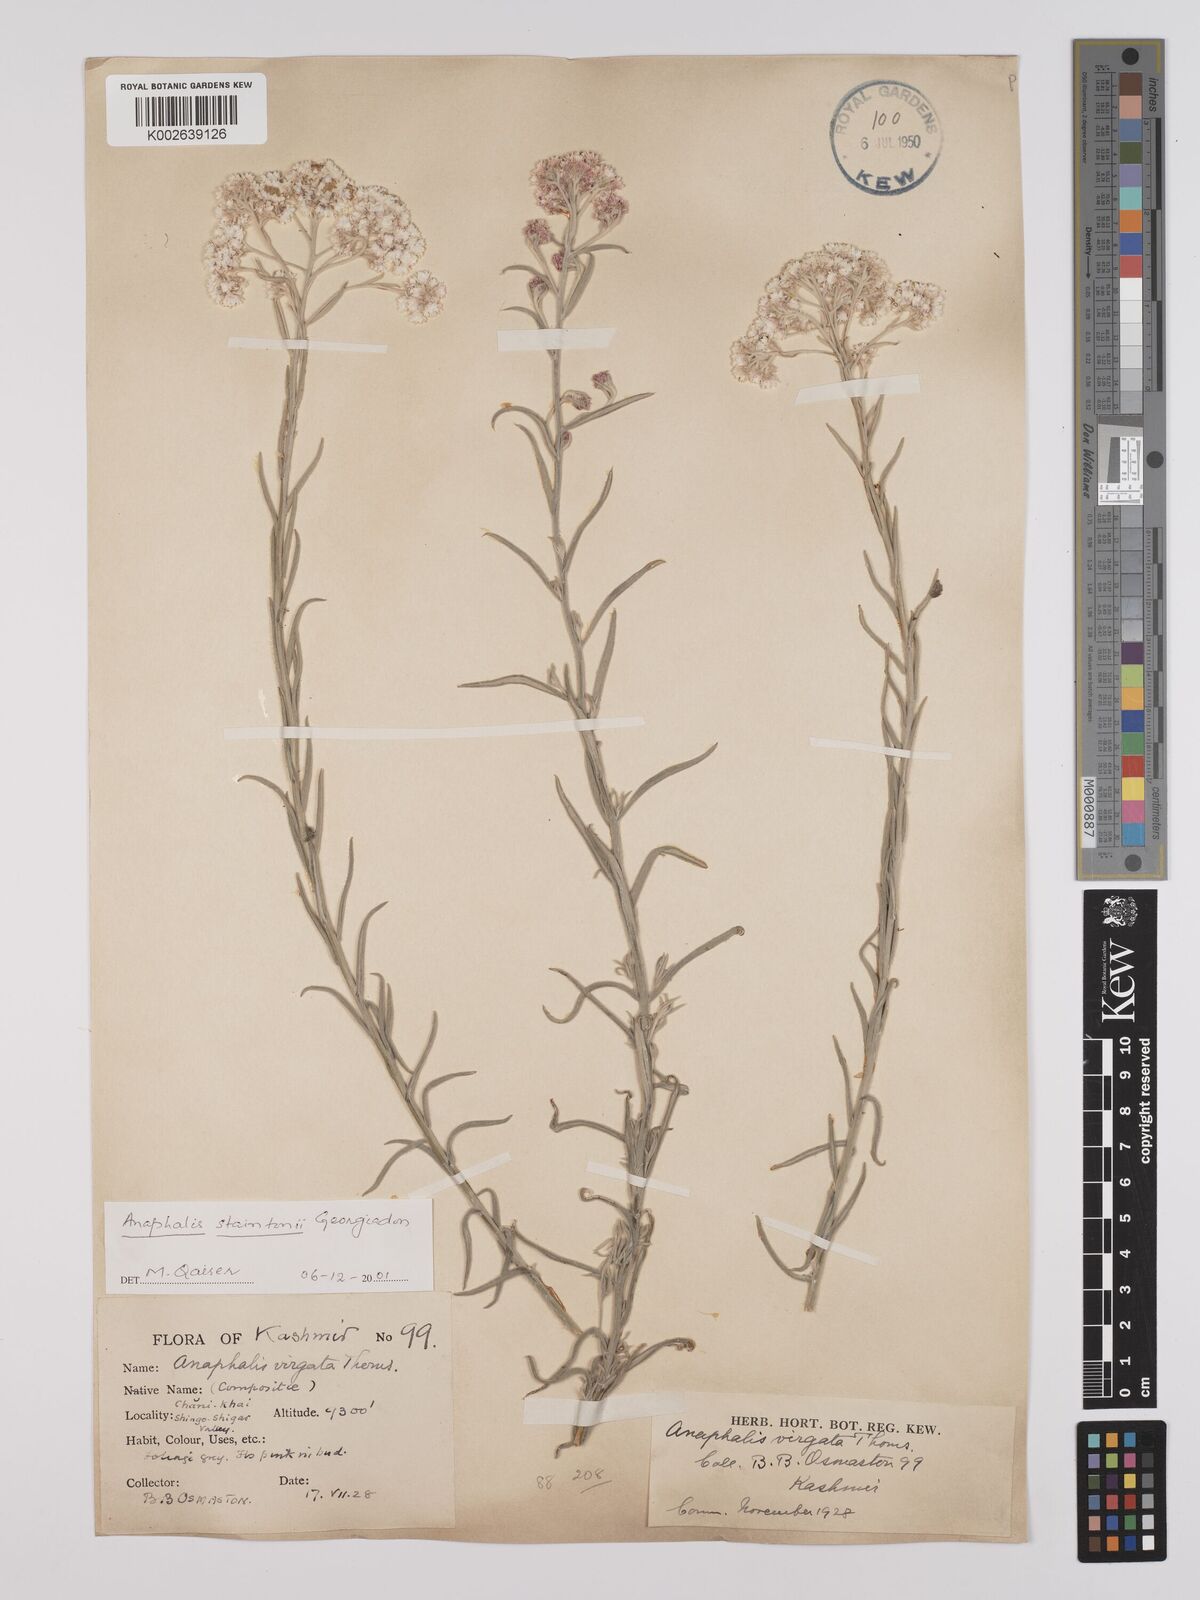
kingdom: Plantae
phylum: Tracheophyta
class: Magnoliopsida
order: Asterales
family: Asteraceae
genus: Anaphalis
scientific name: Anaphalis contorta
